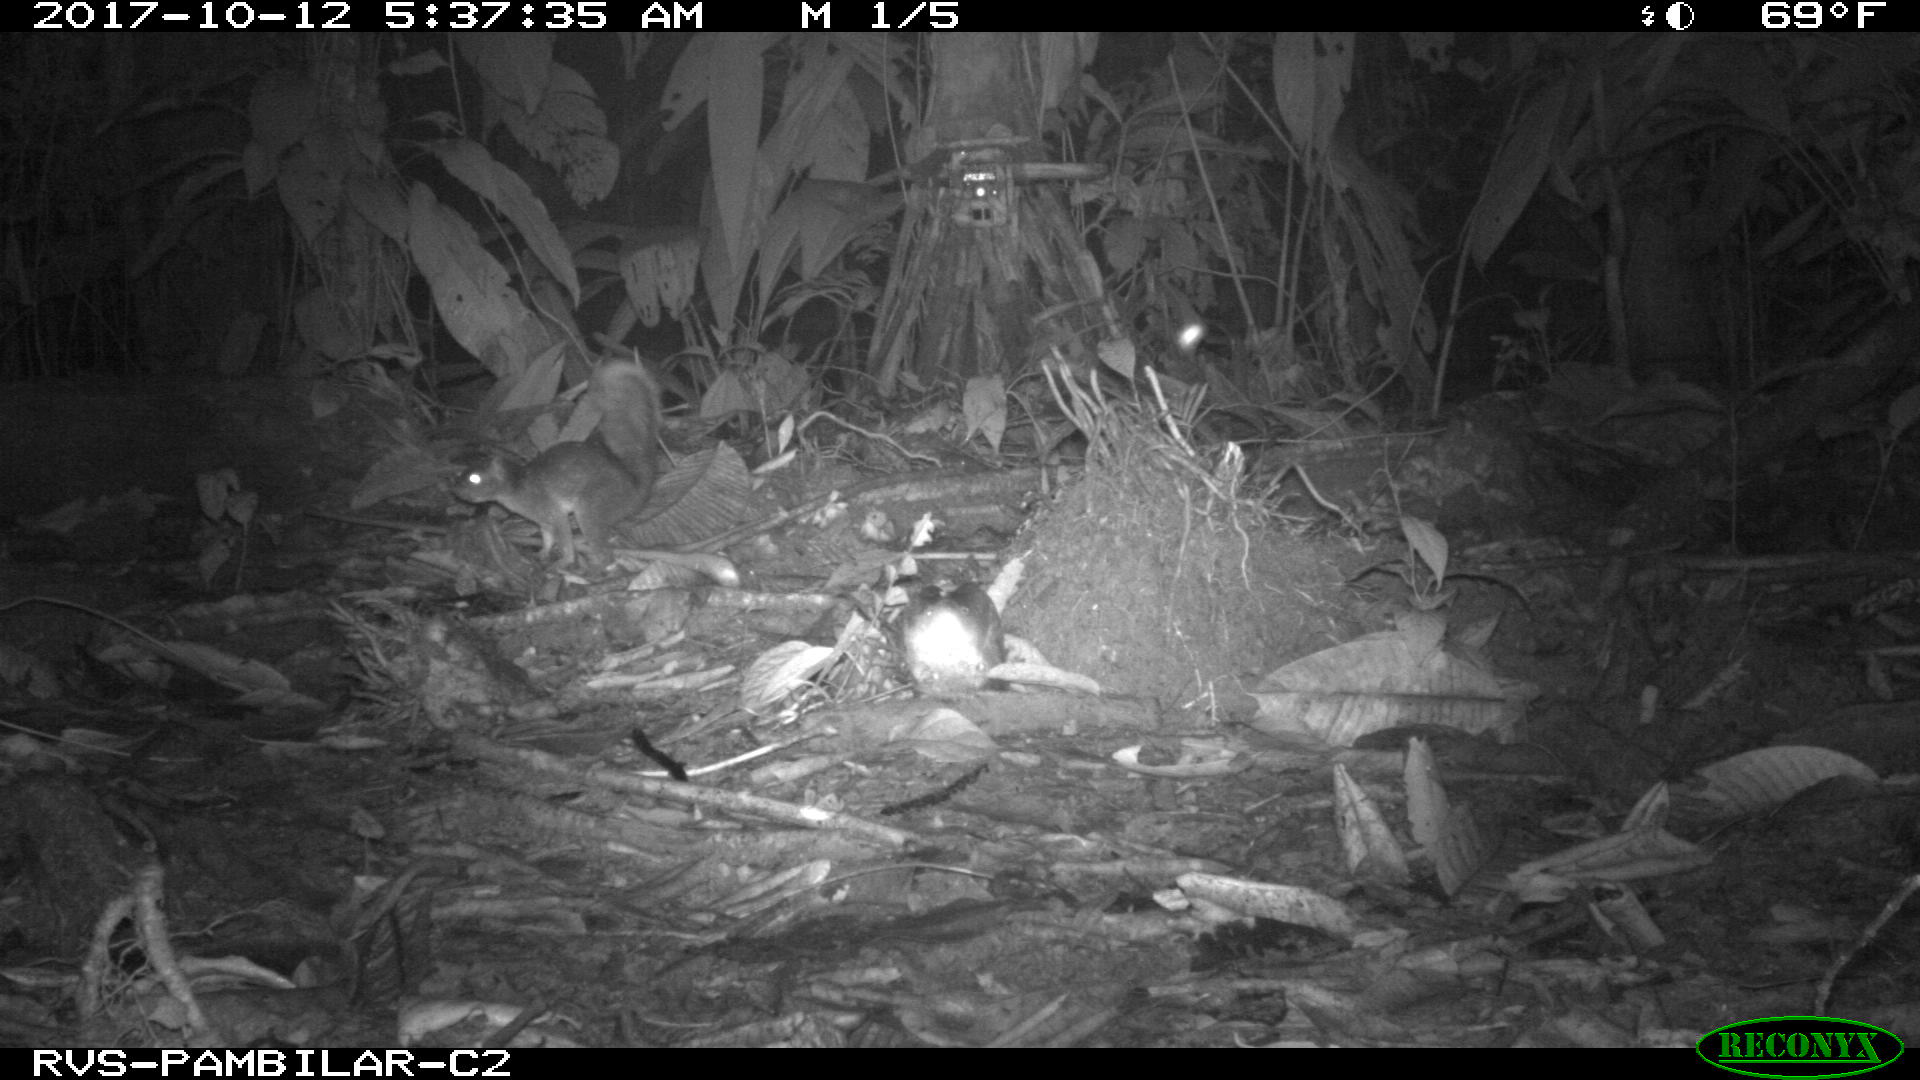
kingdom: Animalia
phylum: Chordata
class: Mammalia
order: Rodentia
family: Sciuridae
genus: Sciurus
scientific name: Sciurus granatensis
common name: Red-tailed squirrel
